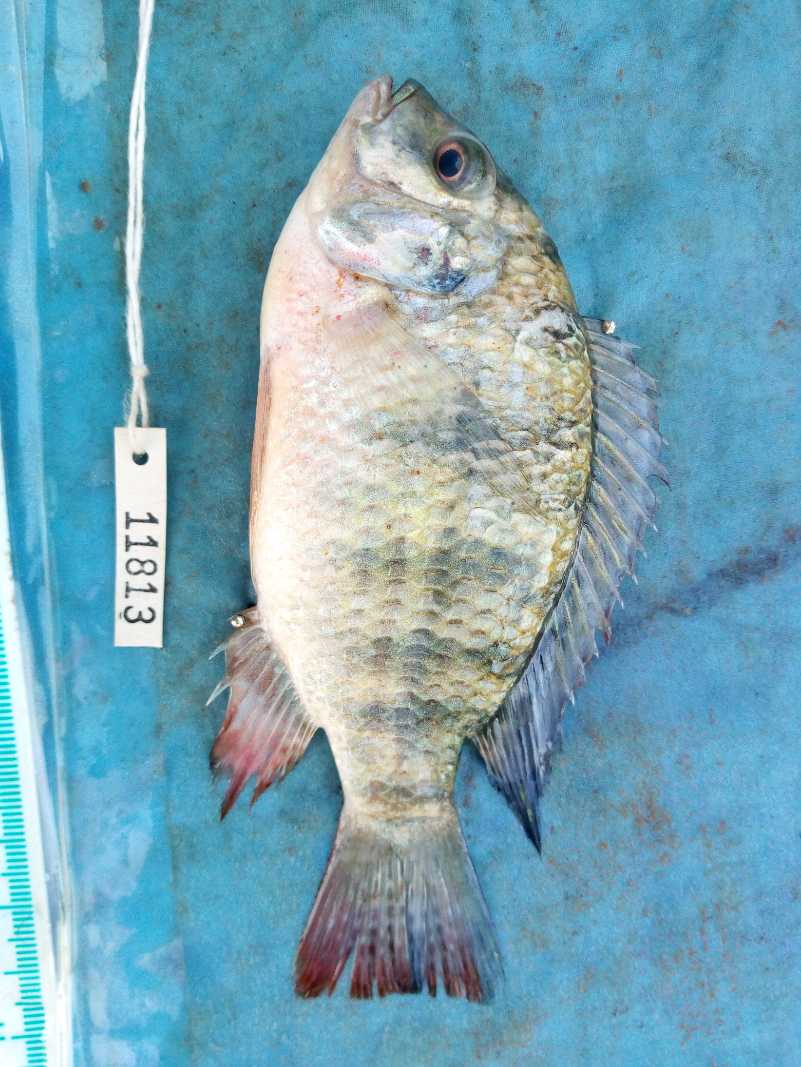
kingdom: Animalia
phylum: Chordata
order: Perciformes
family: Cichlidae
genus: Coptodon
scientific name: Coptodon zillii
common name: Redbelly tilapia
